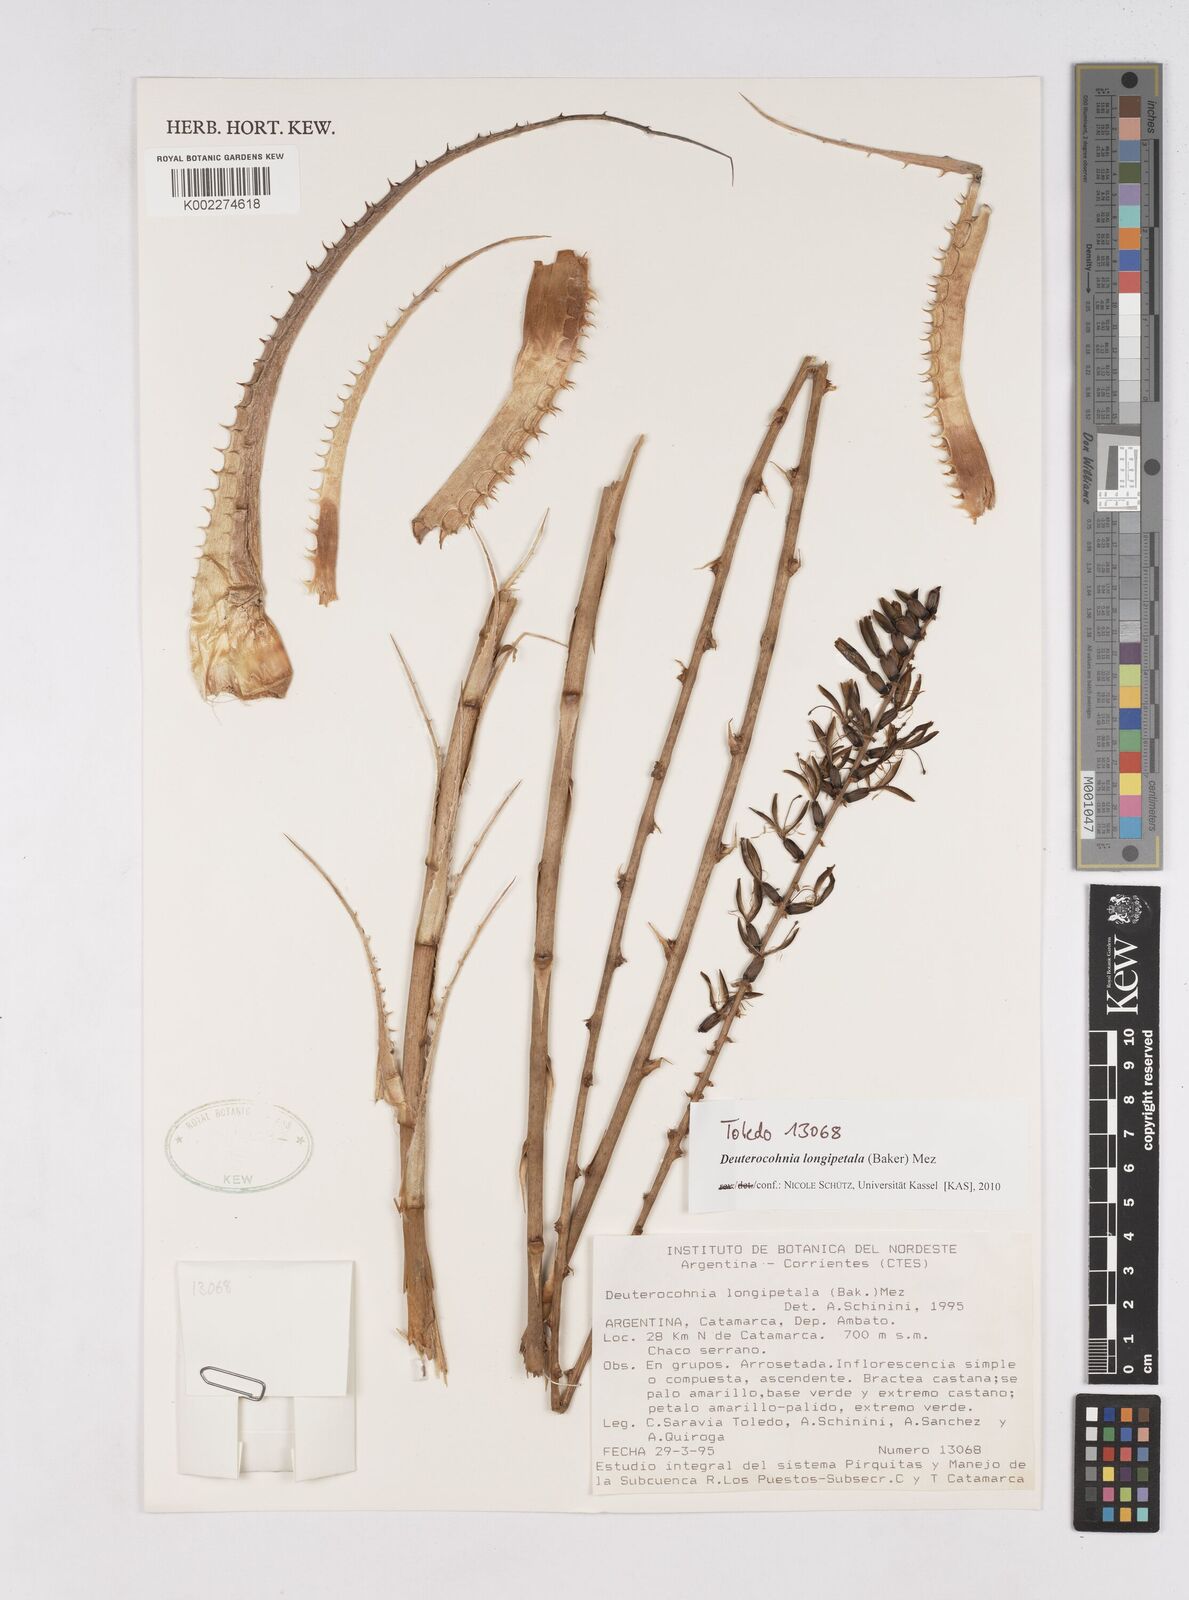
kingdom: Plantae
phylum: Tracheophyta
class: Liliopsida
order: Poales
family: Bromeliaceae
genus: Deuterocohnia
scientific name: Deuterocohnia longipetala
